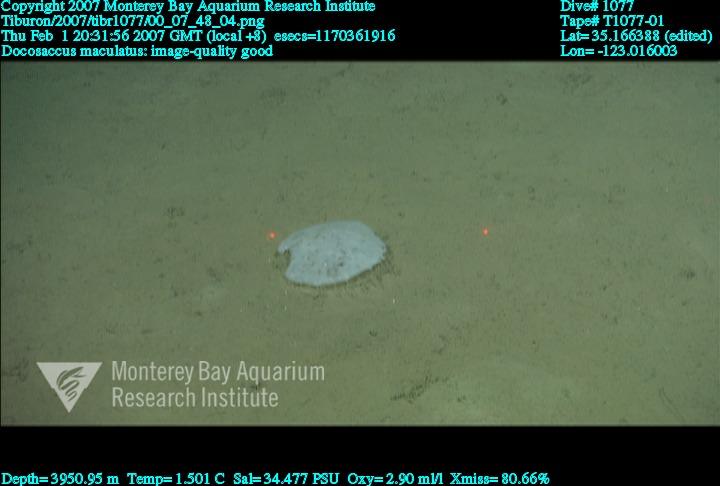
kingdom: Animalia
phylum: Porifera
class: Hexactinellida
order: Lyssacinosida
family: Euplectellidae
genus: Docosaccus
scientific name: Docosaccus maculatus
